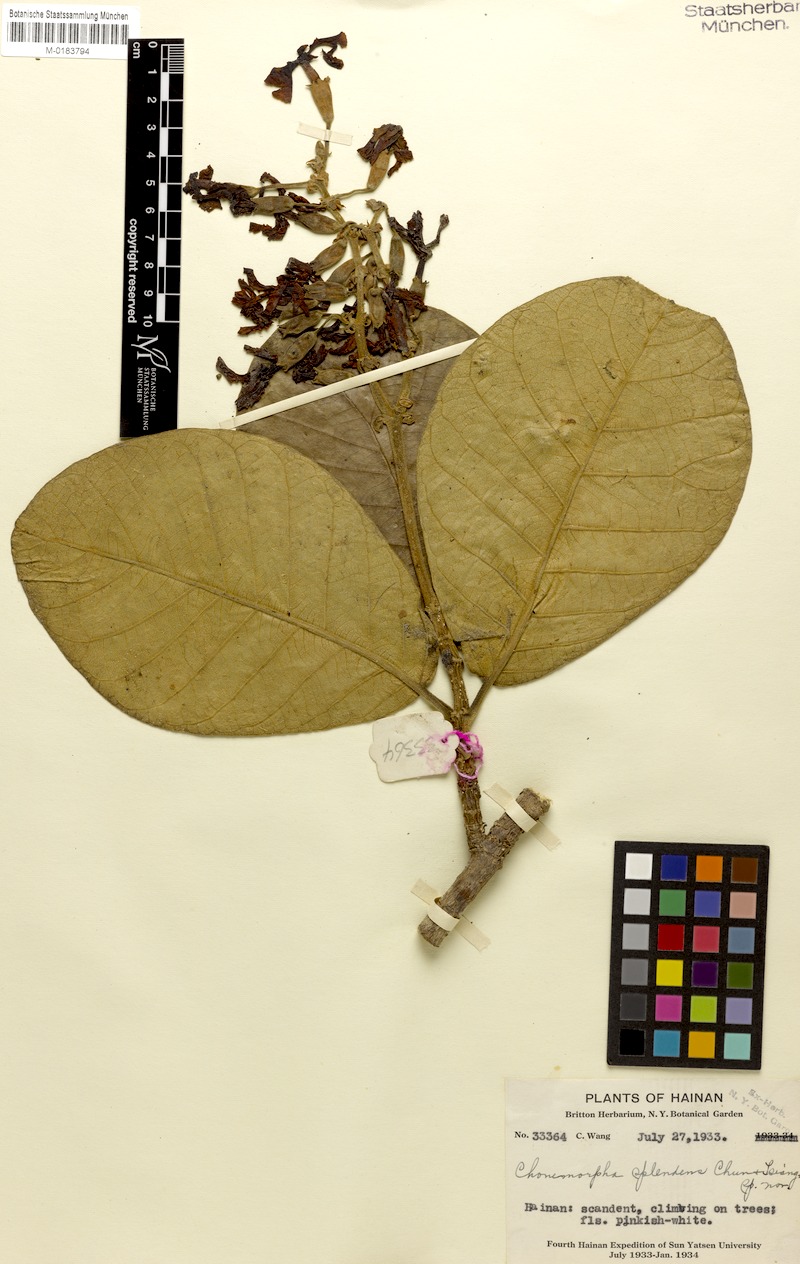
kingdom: Plantae
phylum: Tracheophyta
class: Magnoliopsida
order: Gentianales
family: Apocynaceae
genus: Chonemorpha
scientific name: Chonemorpha splendens
